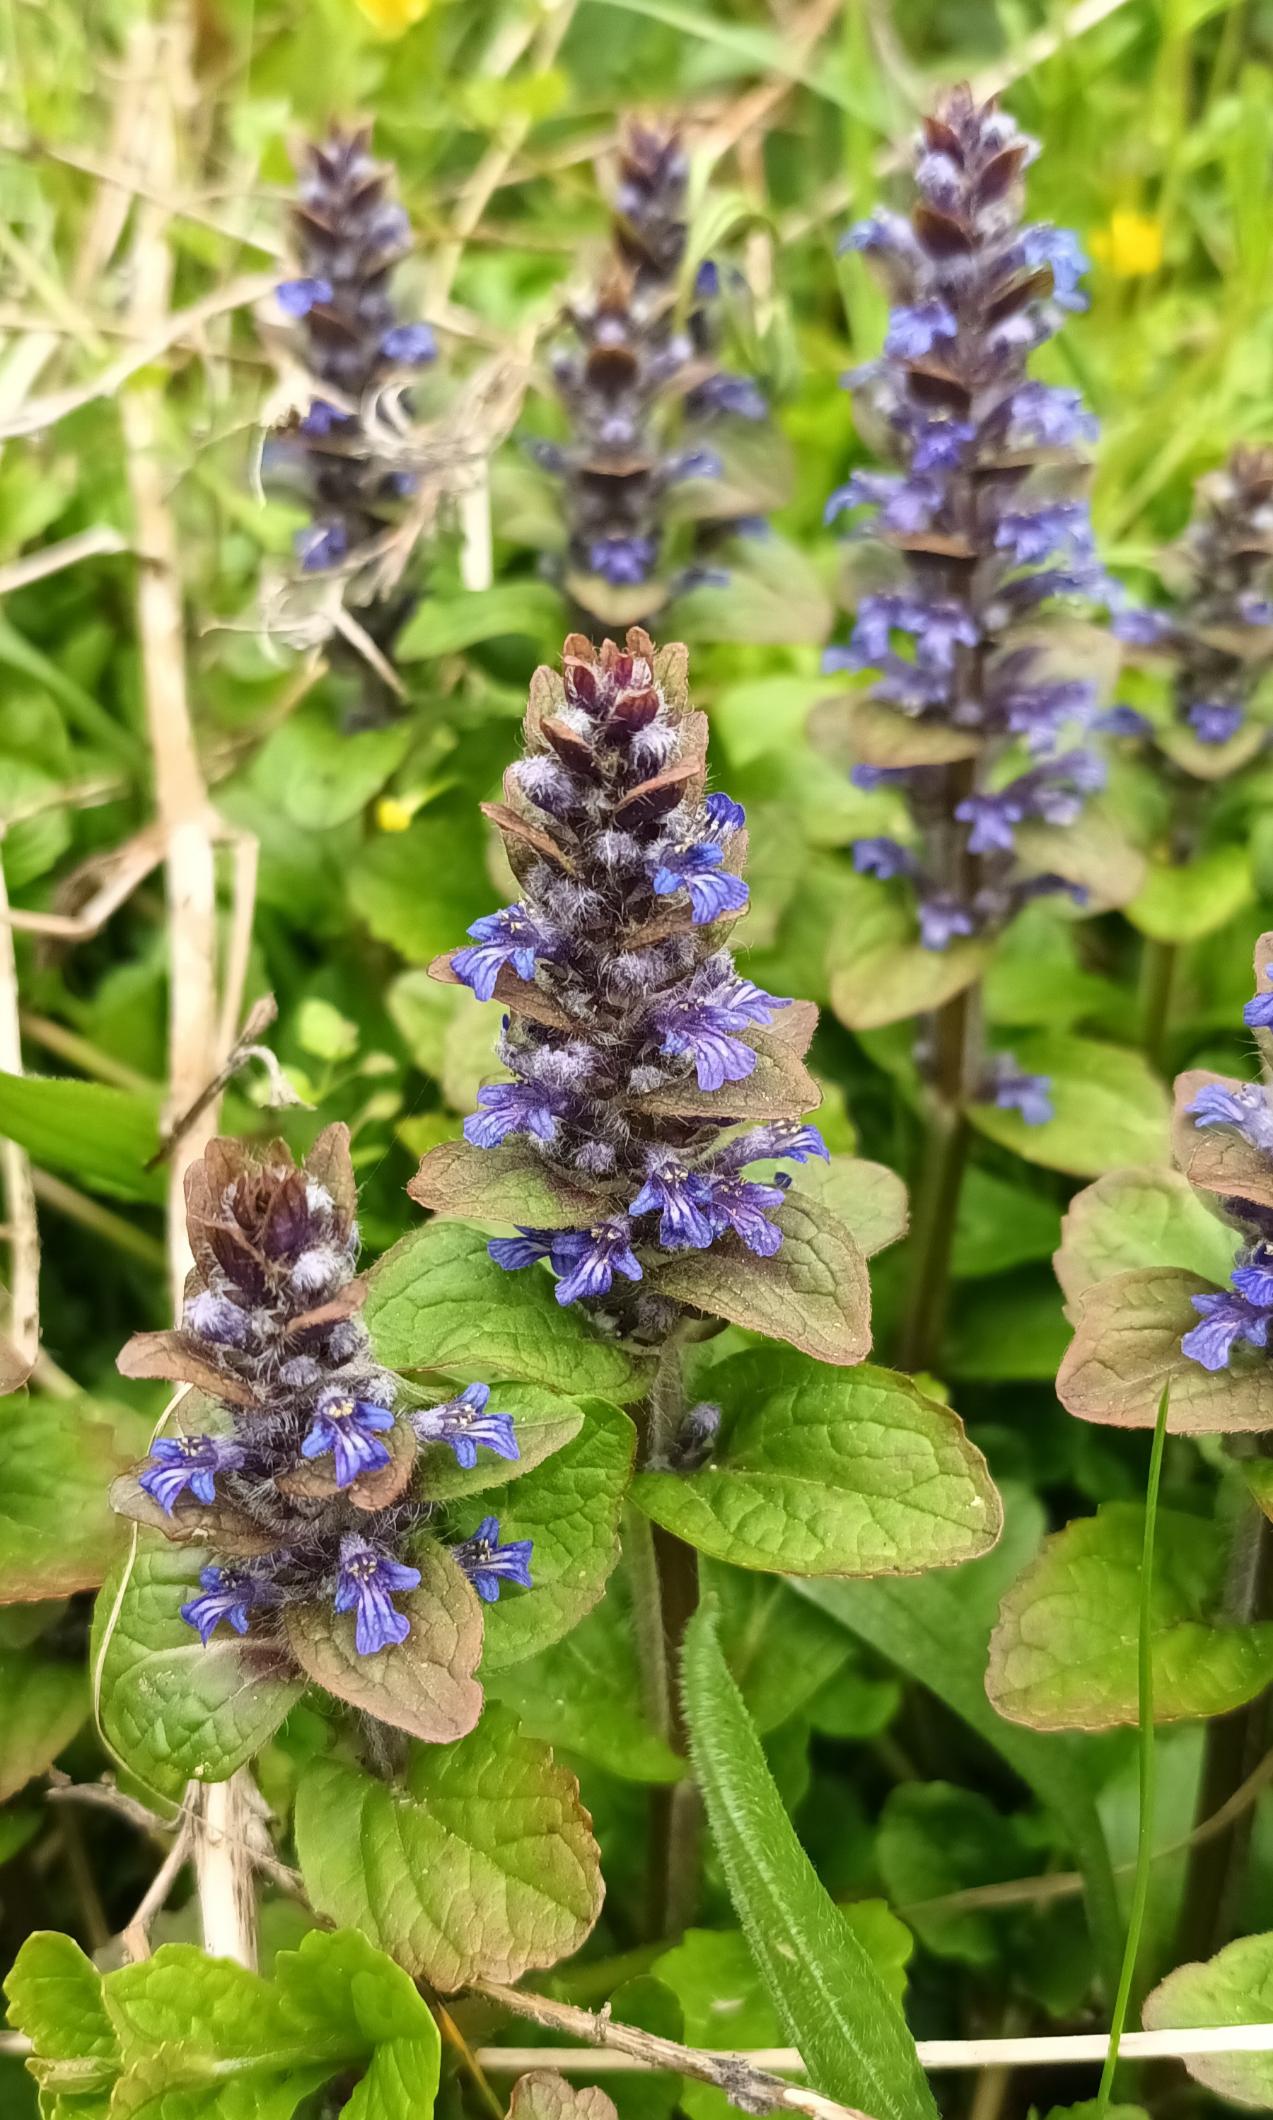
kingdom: Plantae
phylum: Tracheophyta
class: Magnoliopsida
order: Lamiales
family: Lamiaceae
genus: Ajuga
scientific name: Ajuga reptans
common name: Krybende læbeløs
